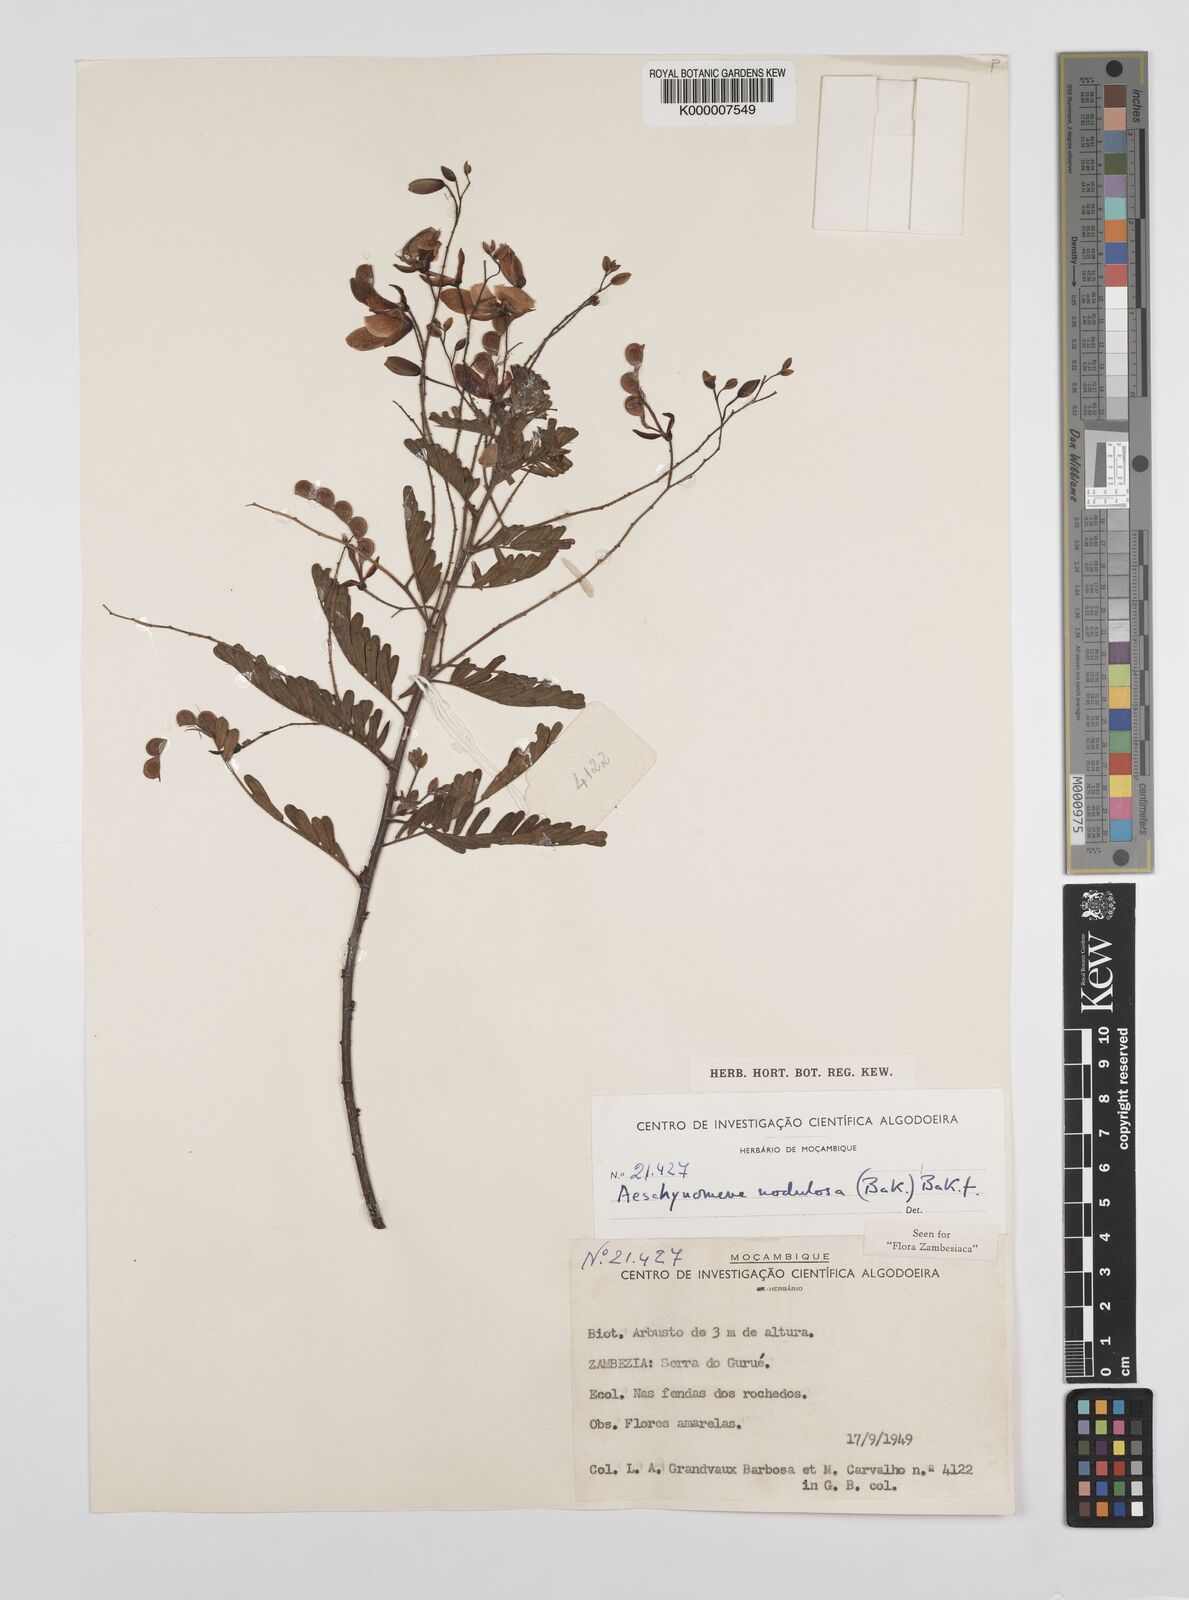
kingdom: Plantae
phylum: Tracheophyta
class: Magnoliopsida
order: Fabales
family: Fabaceae
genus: Aeschynomene
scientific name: Aeschynomene nodulosa
